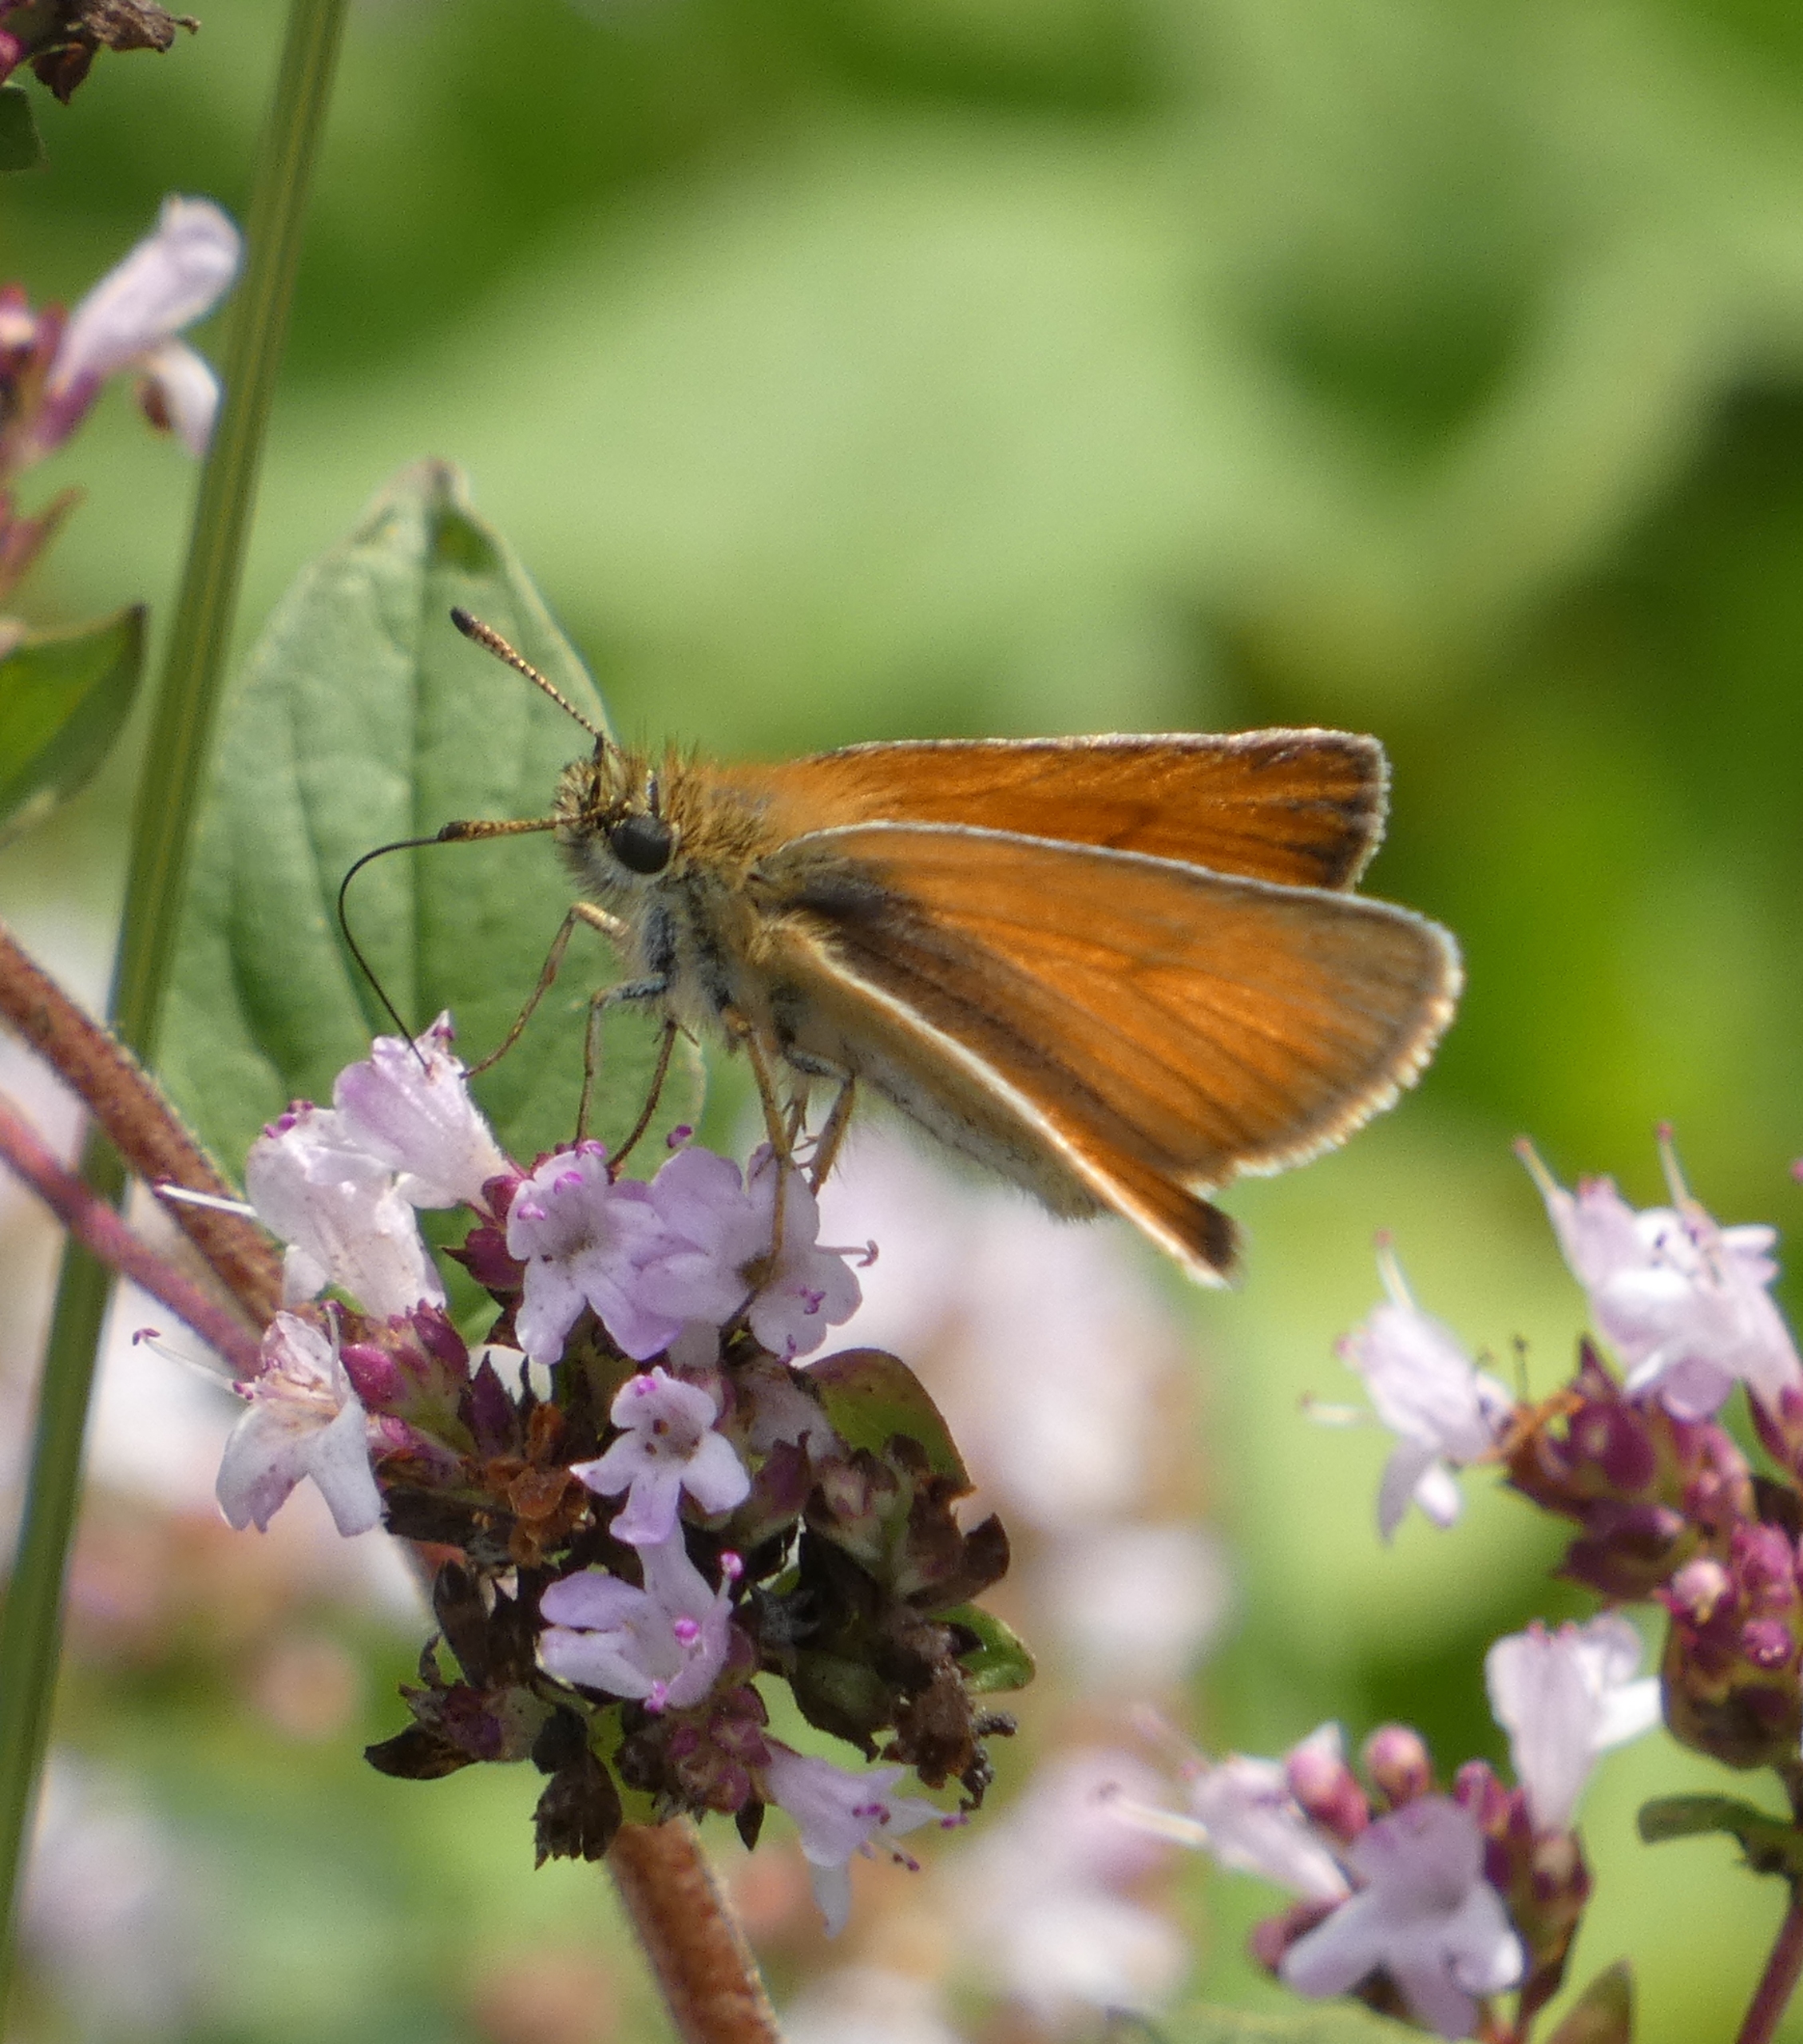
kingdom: Animalia
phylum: Arthropoda
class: Insecta
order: Lepidoptera
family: Hesperiidae
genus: Thymelicus
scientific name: Thymelicus lineola
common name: Stregbredpande
